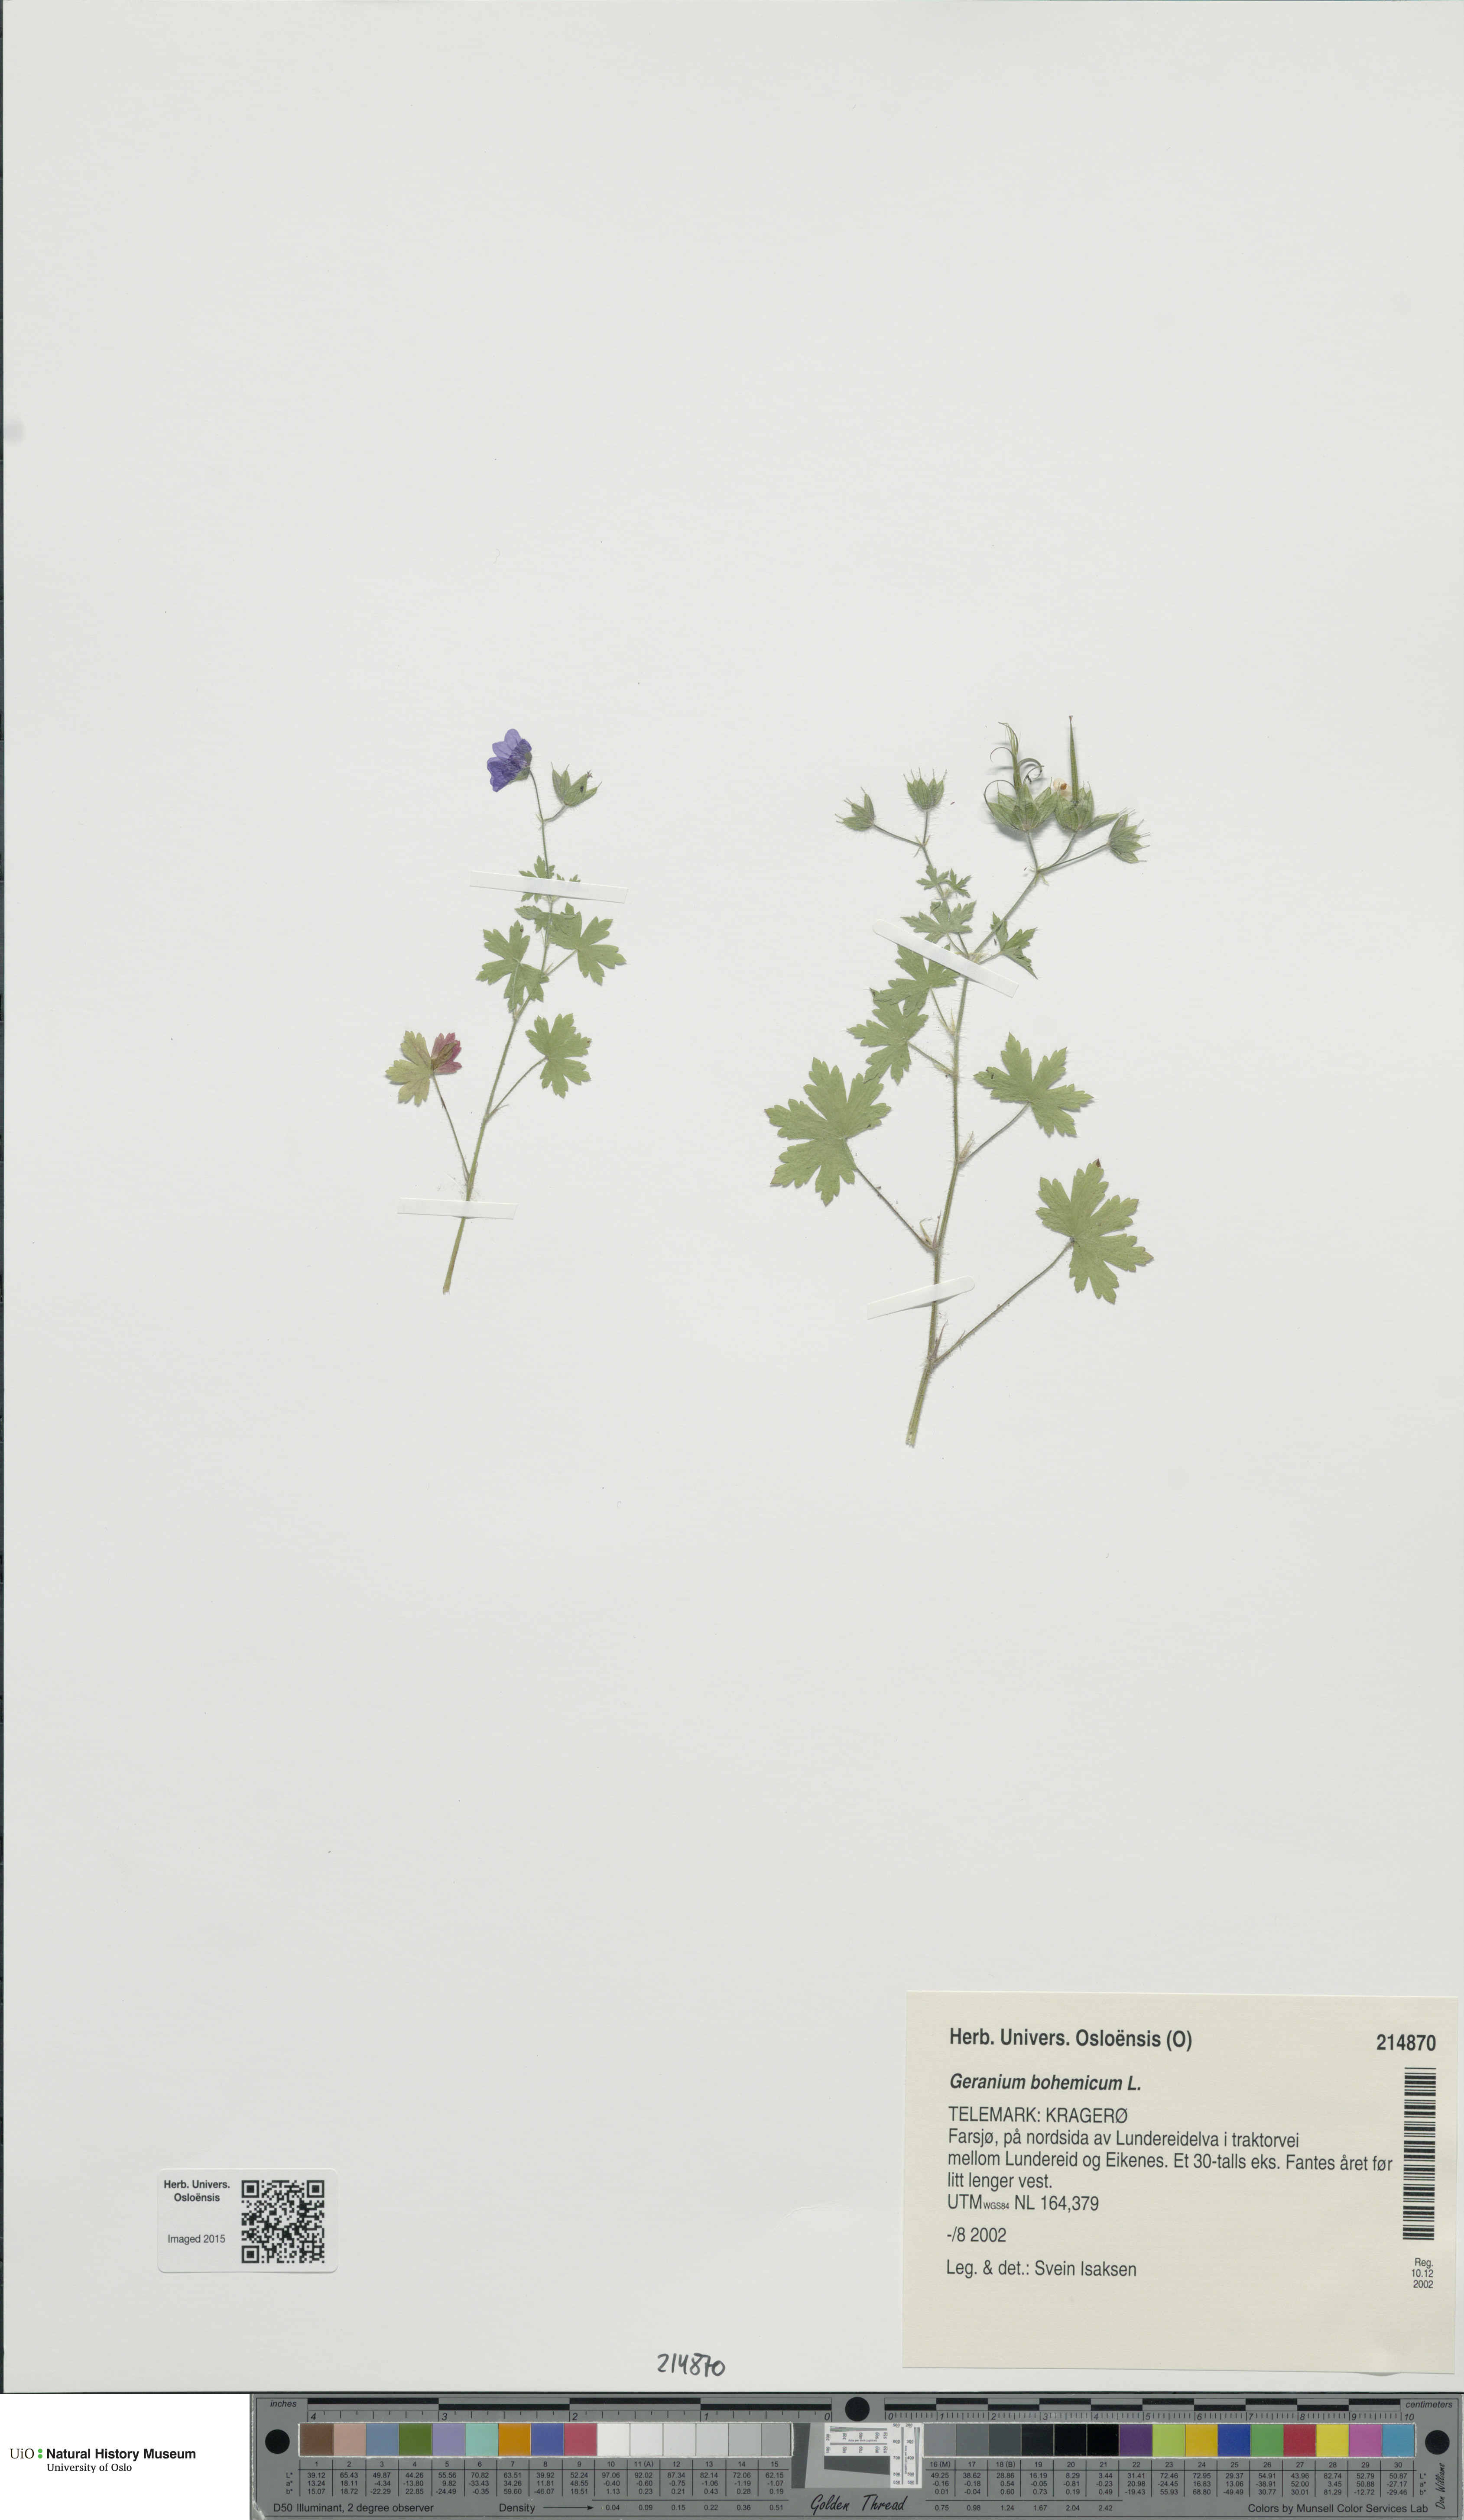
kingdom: Plantae
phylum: Tracheophyta
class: Magnoliopsida
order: Geraniales
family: Geraniaceae
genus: Geranium
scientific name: Geranium bohemicum
